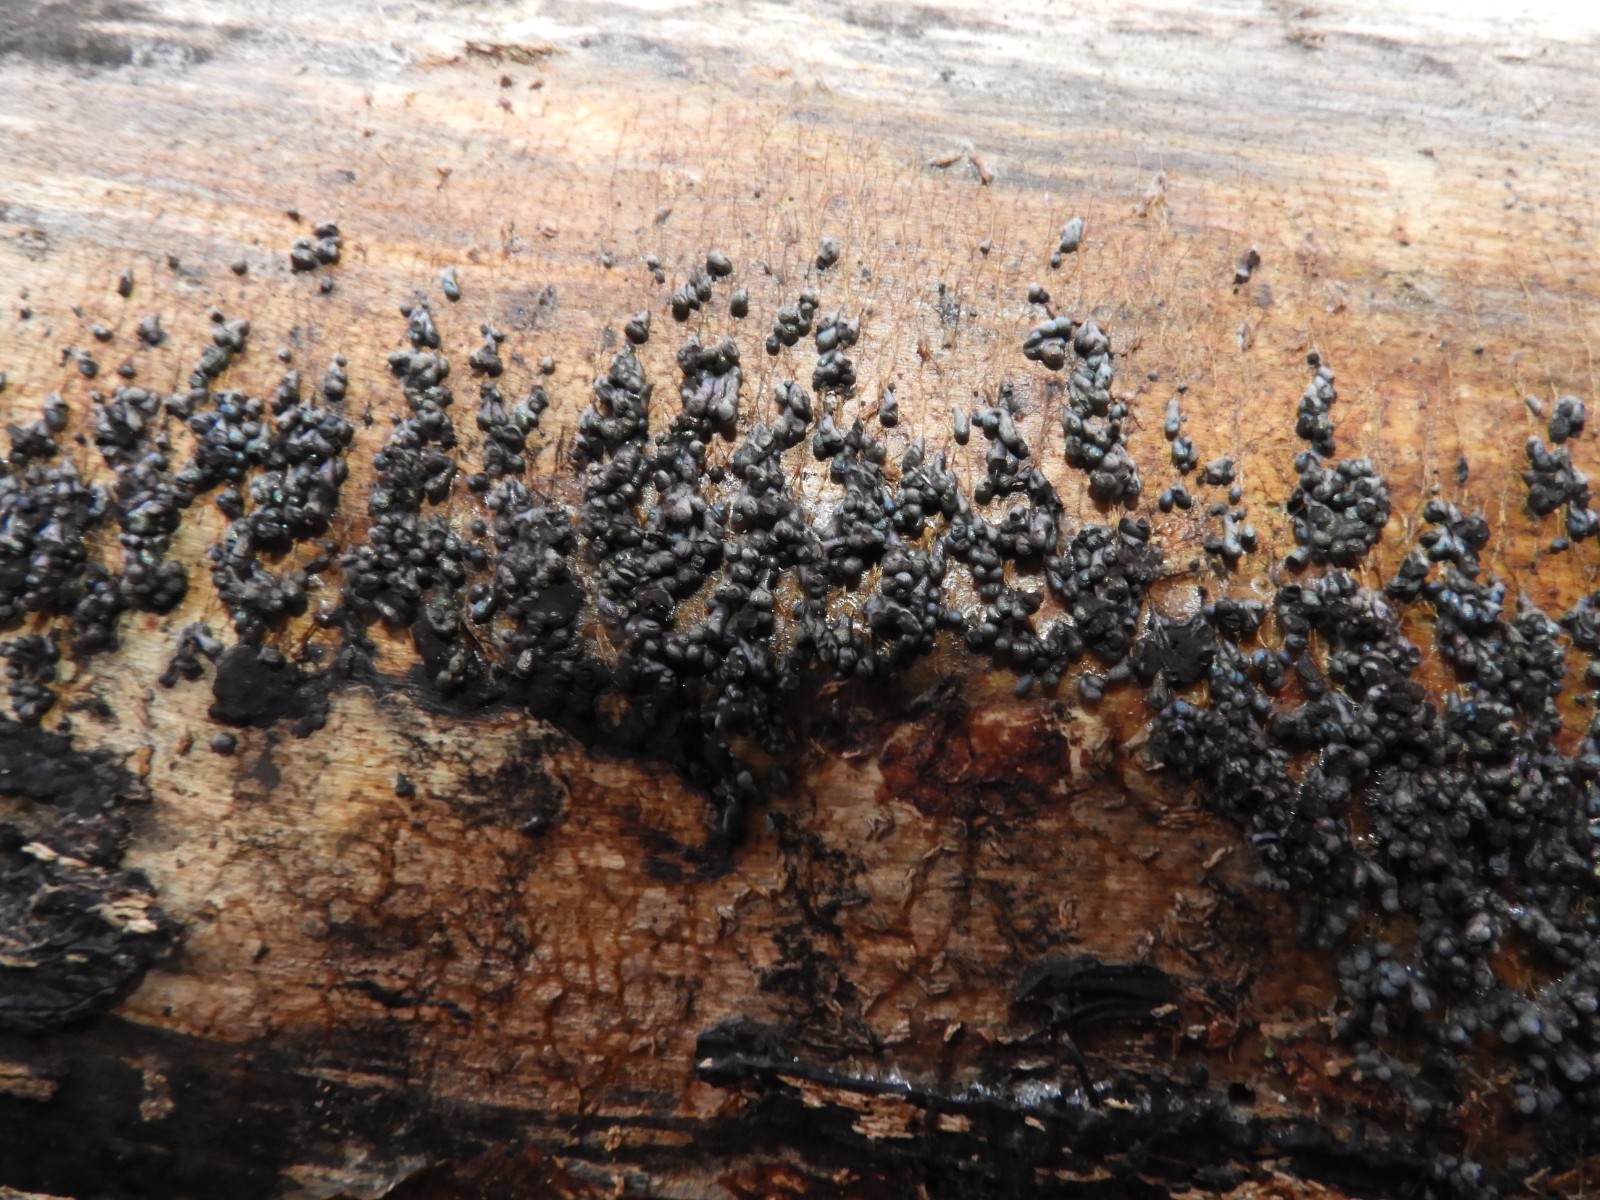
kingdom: Protozoa
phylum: Mycetozoa
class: Myxomycetes
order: Physarales
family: Physaraceae
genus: Badhamia
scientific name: Badhamia utricularis
